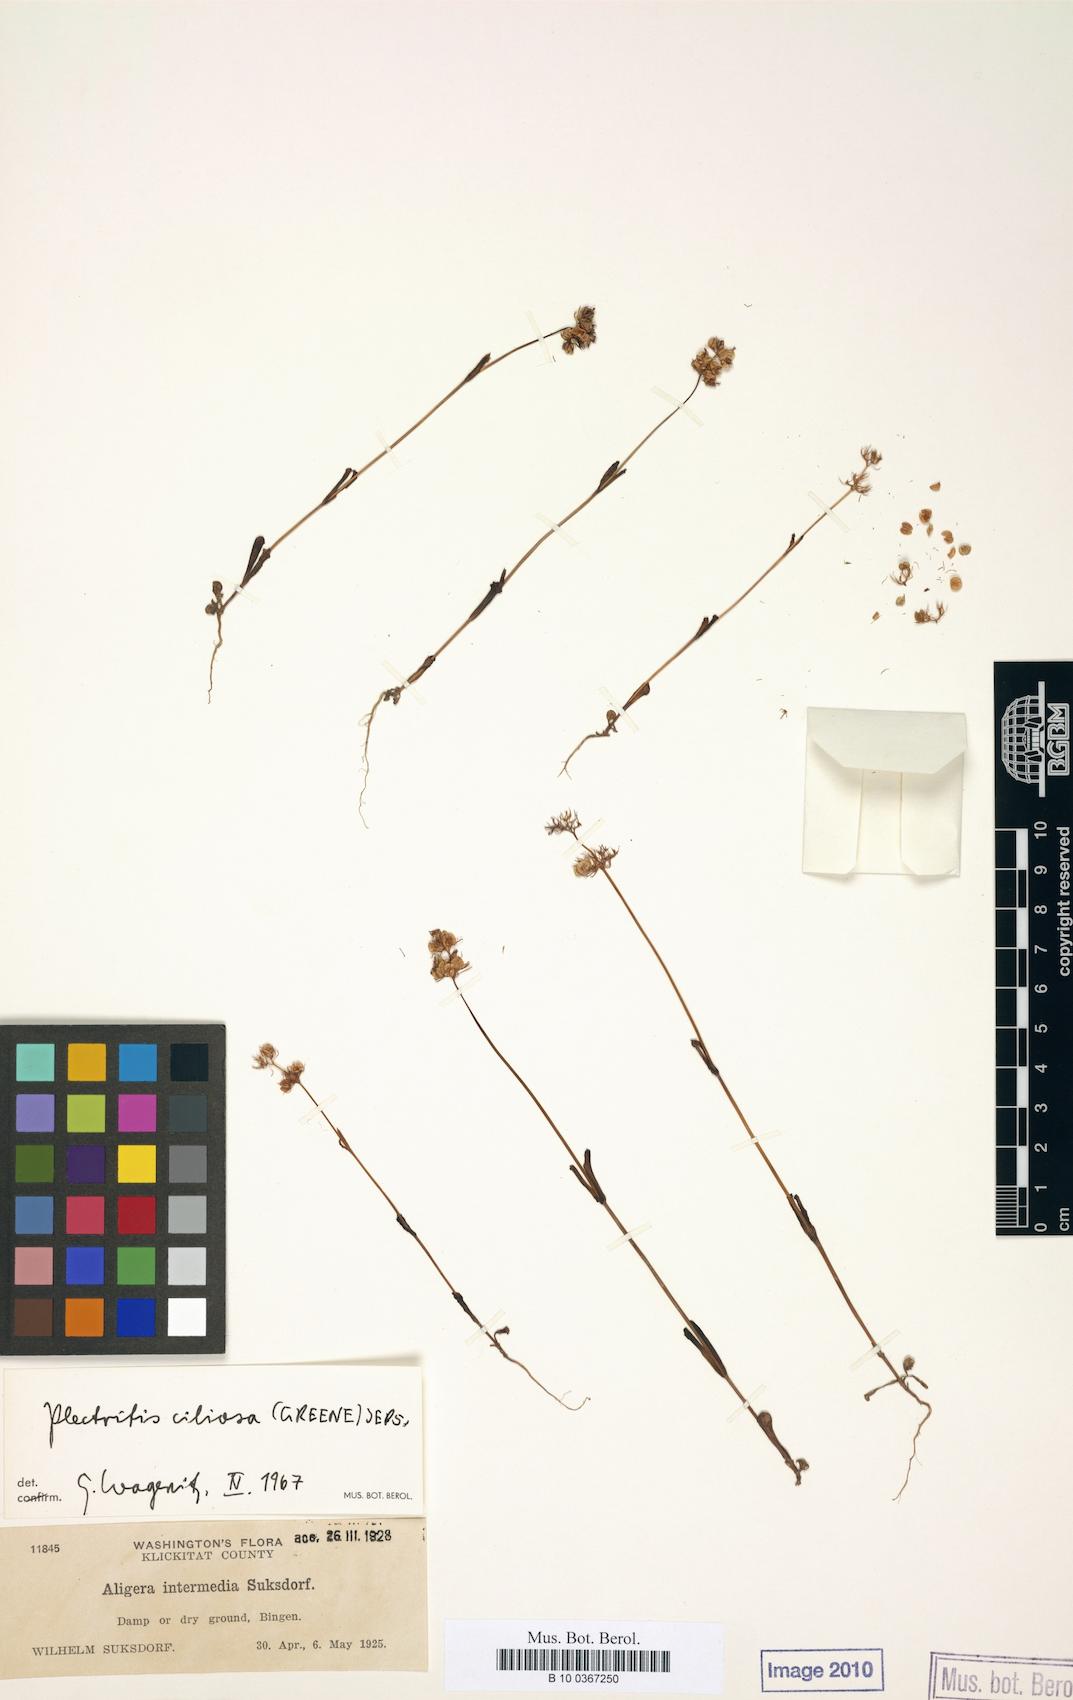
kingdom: Plantae
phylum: Tracheophyta
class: Magnoliopsida
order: Dipsacales
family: Caprifoliaceae
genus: Plectritis
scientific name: Plectritis ciliosa
